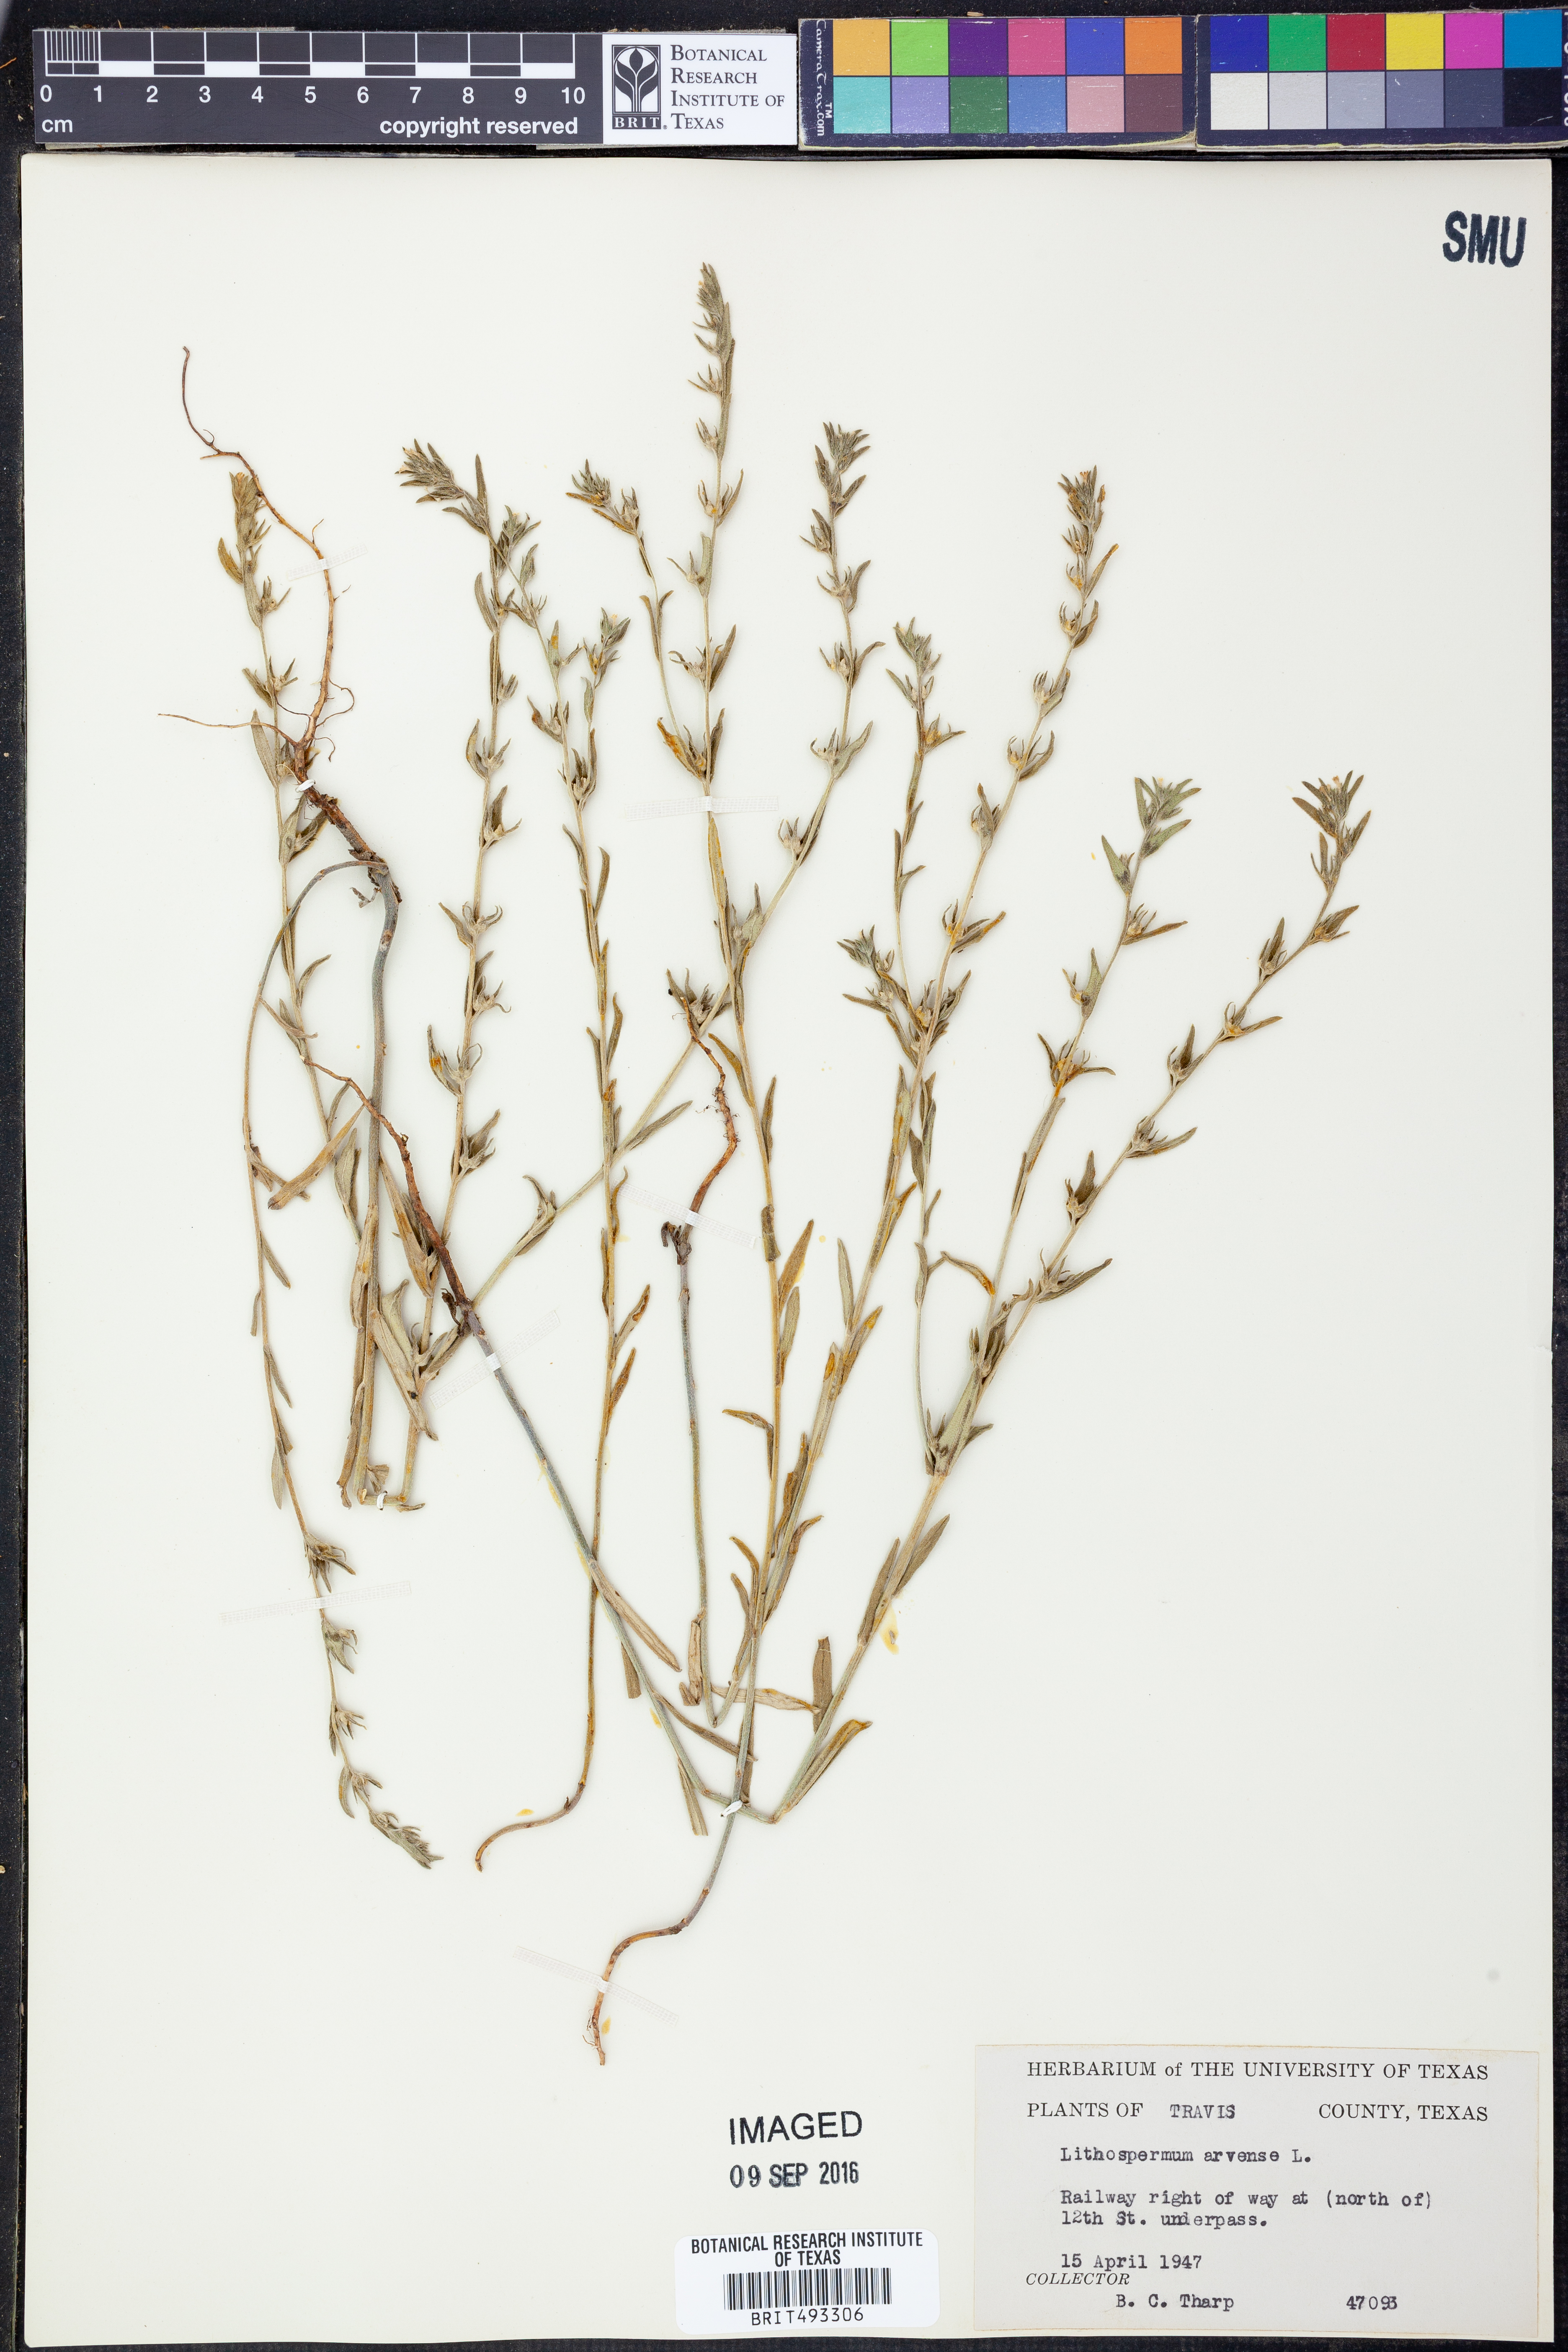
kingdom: Plantae
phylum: Tracheophyta
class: Magnoliopsida
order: Boraginales
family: Boraginaceae
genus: Lithospermum
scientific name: Lithospermum erythrorhizon
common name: Purple gromwell
